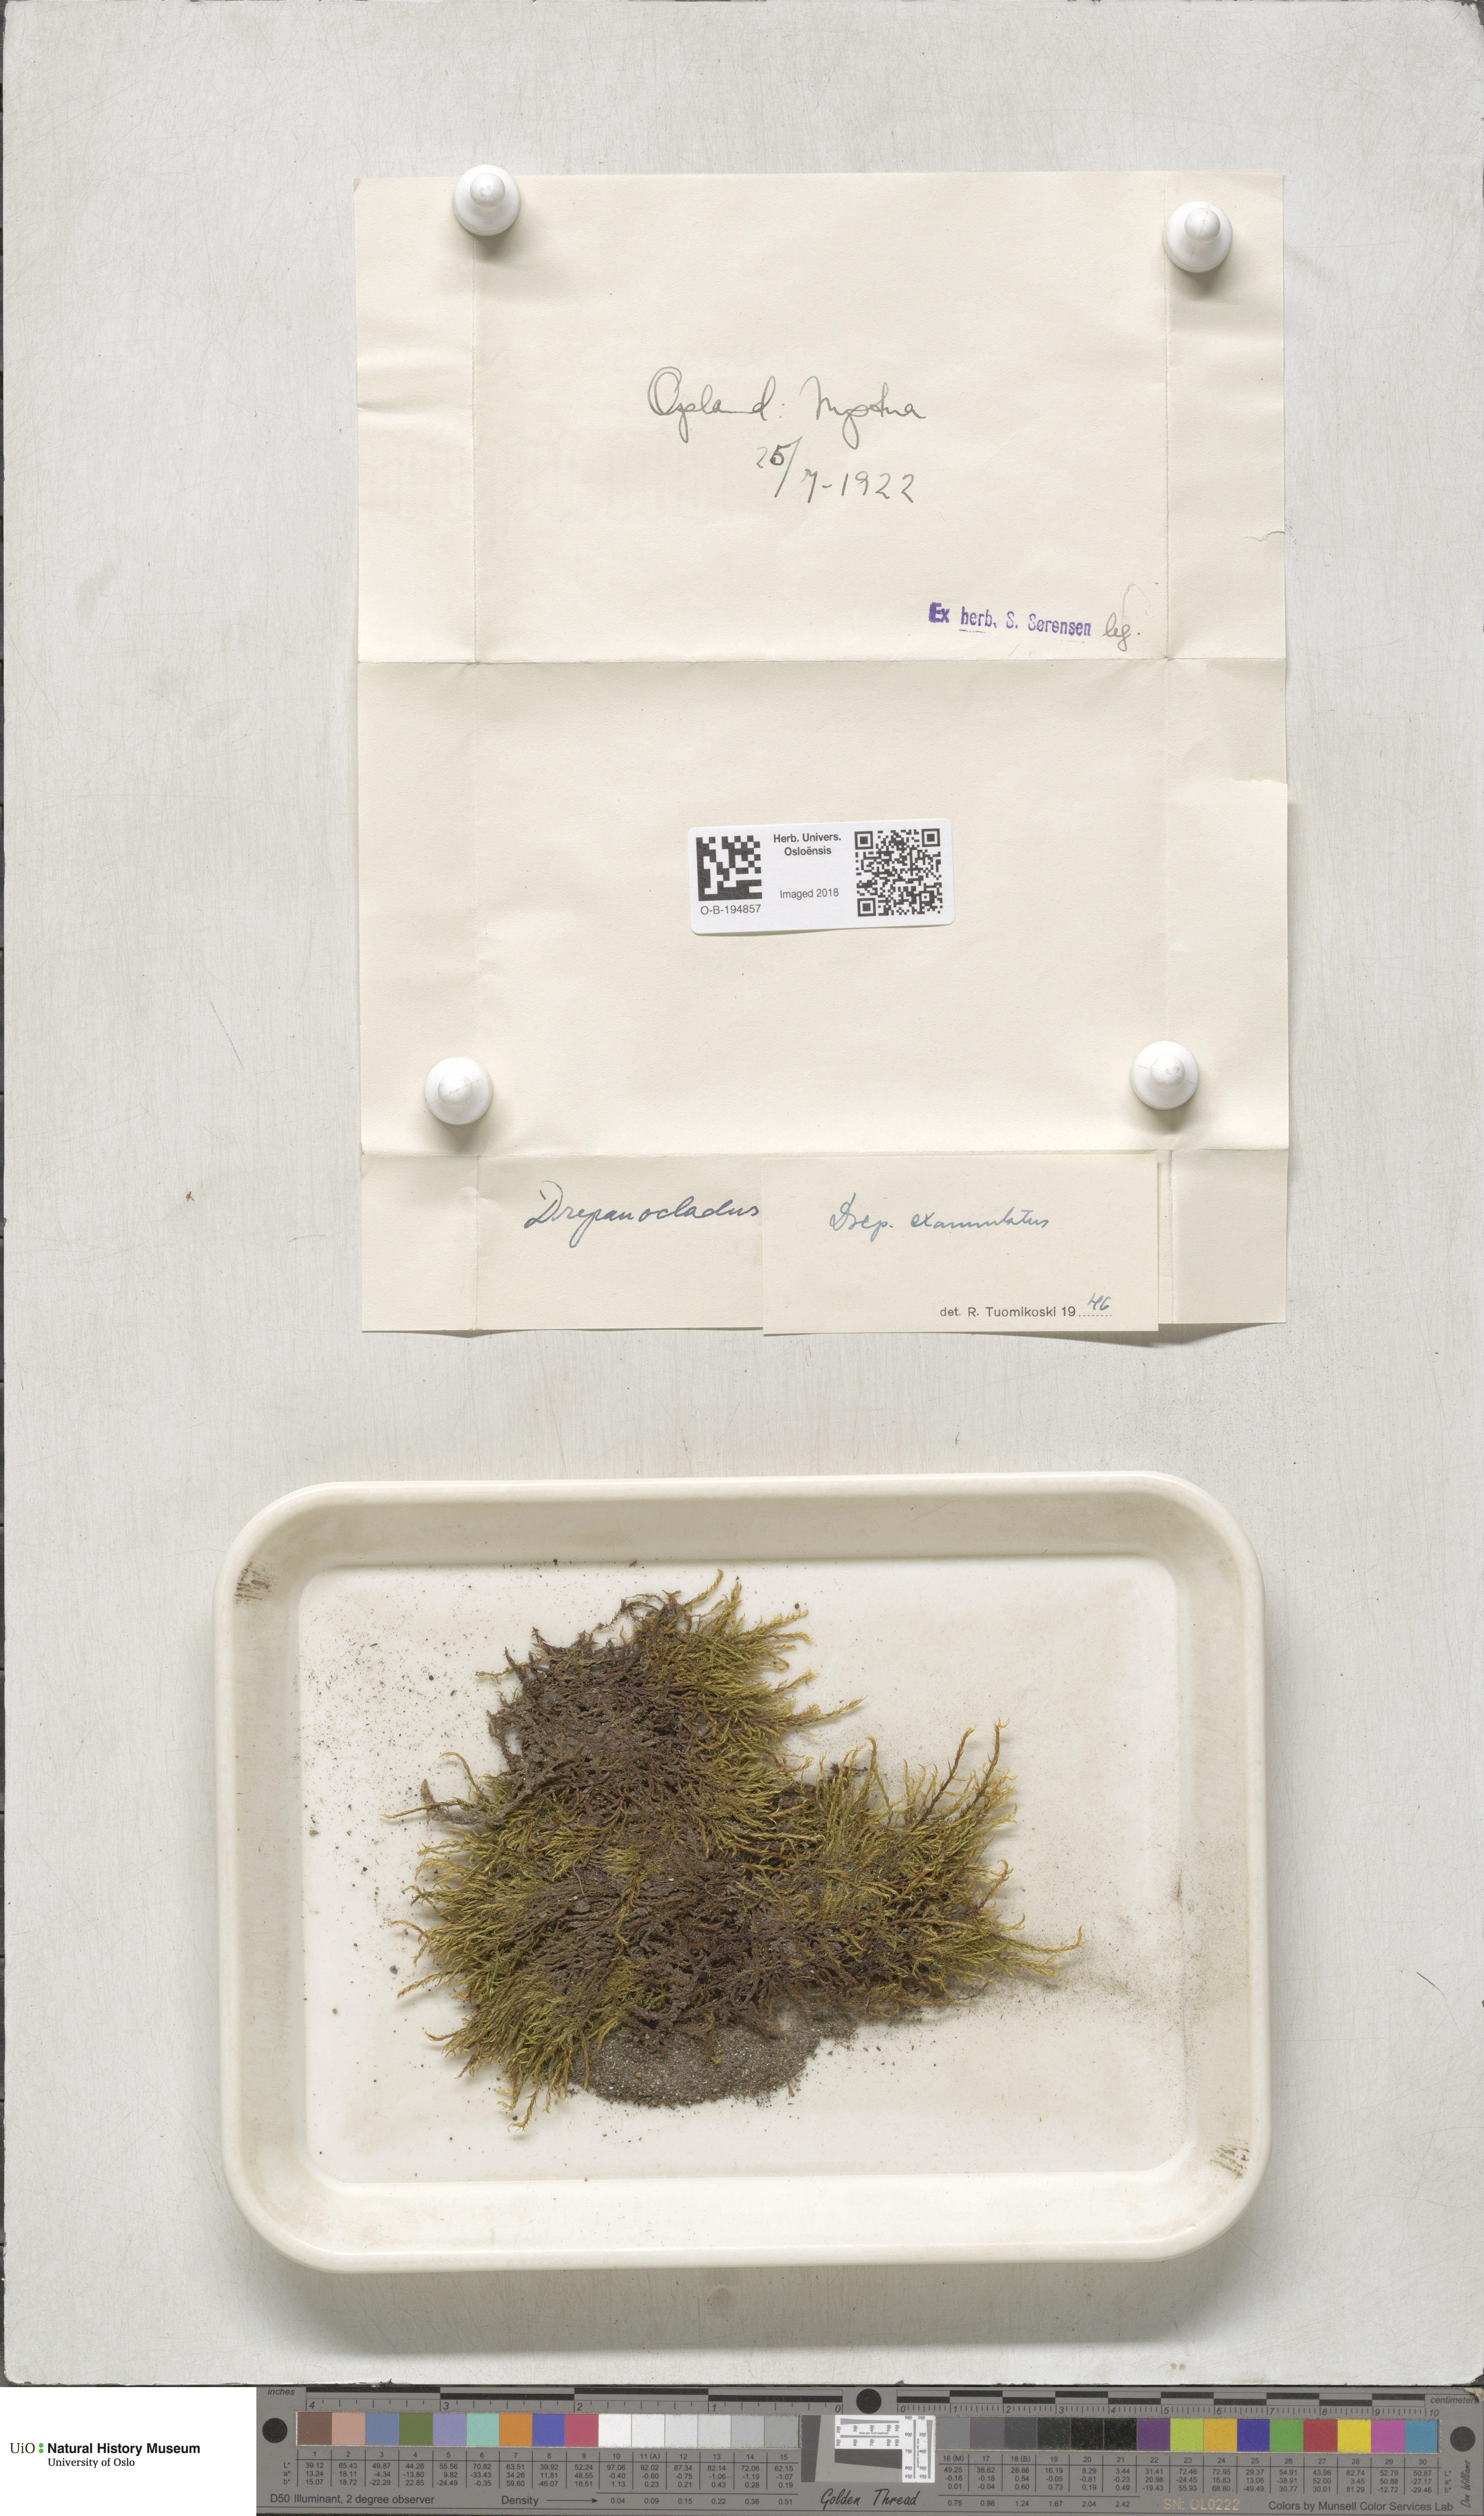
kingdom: Plantae
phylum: Bryophyta
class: Bryopsida
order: Hypnales
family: Calliergonaceae
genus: Sarmentypnum
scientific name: Sarmentypnum exannulatum
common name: Ringless spoon moss
